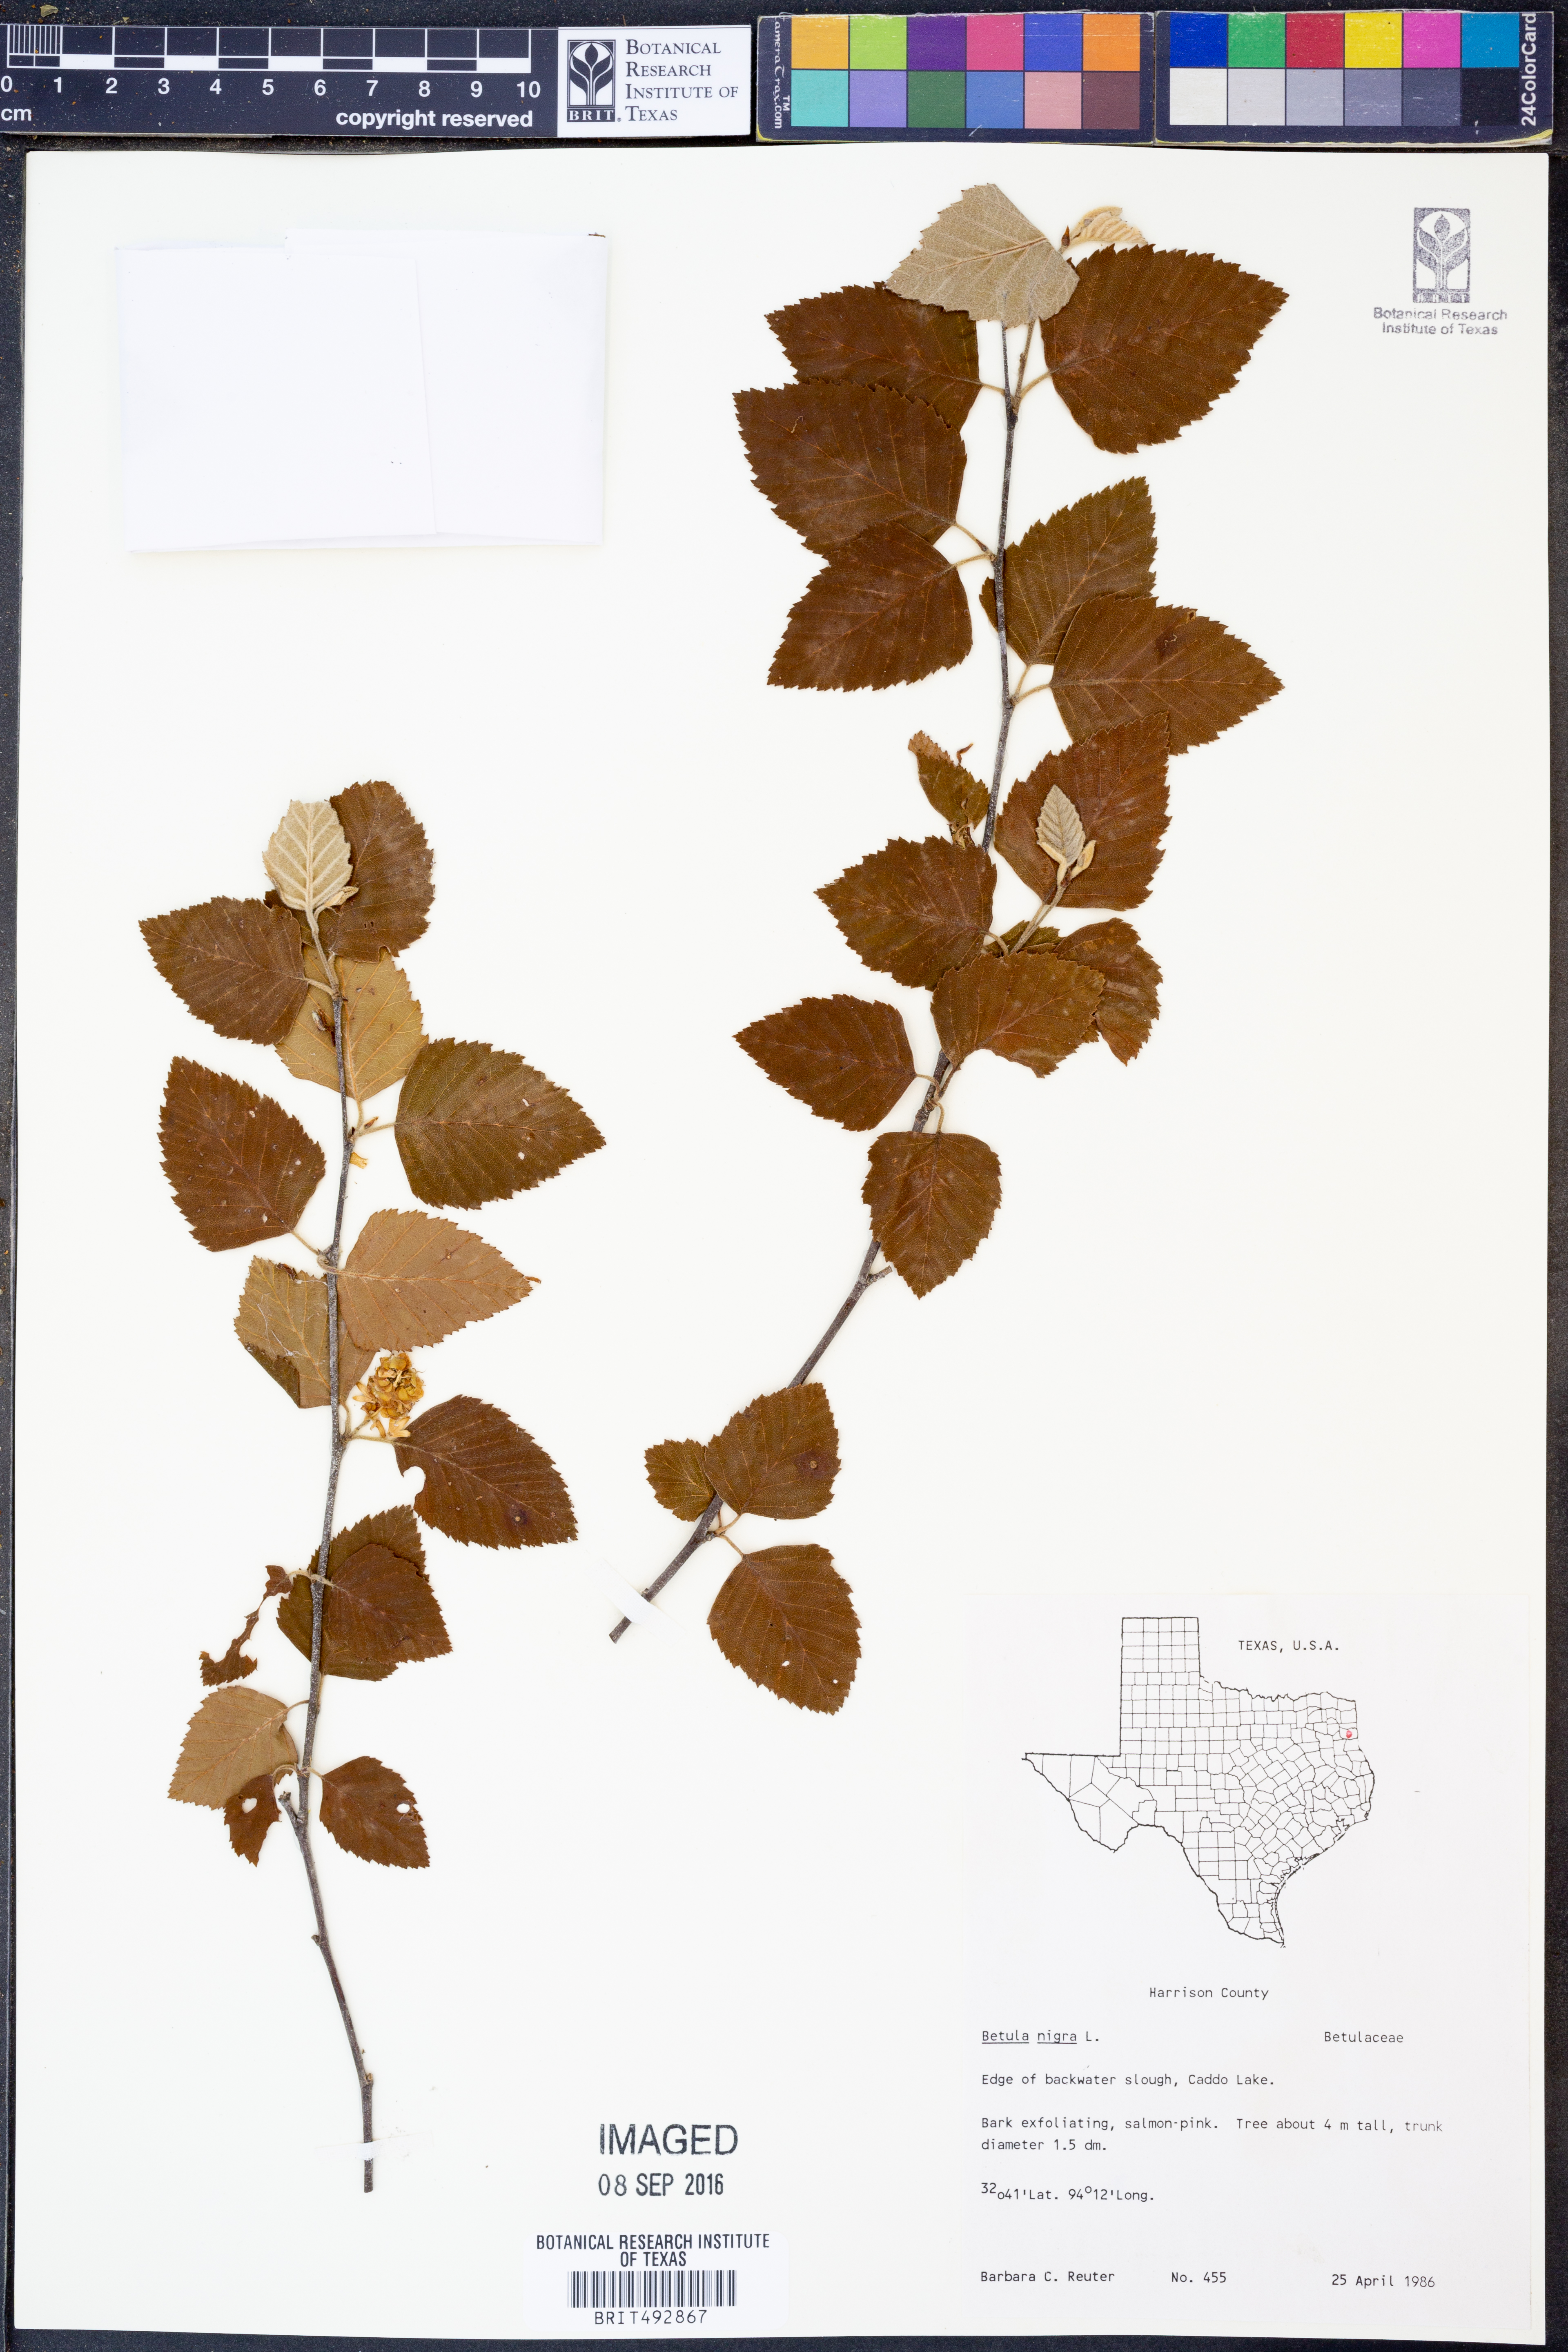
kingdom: Plantae
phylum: Tracheophyta
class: Magnoliopsida
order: Fagales
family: Betulaceae
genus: Betula
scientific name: Betula nigra
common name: Black birch
